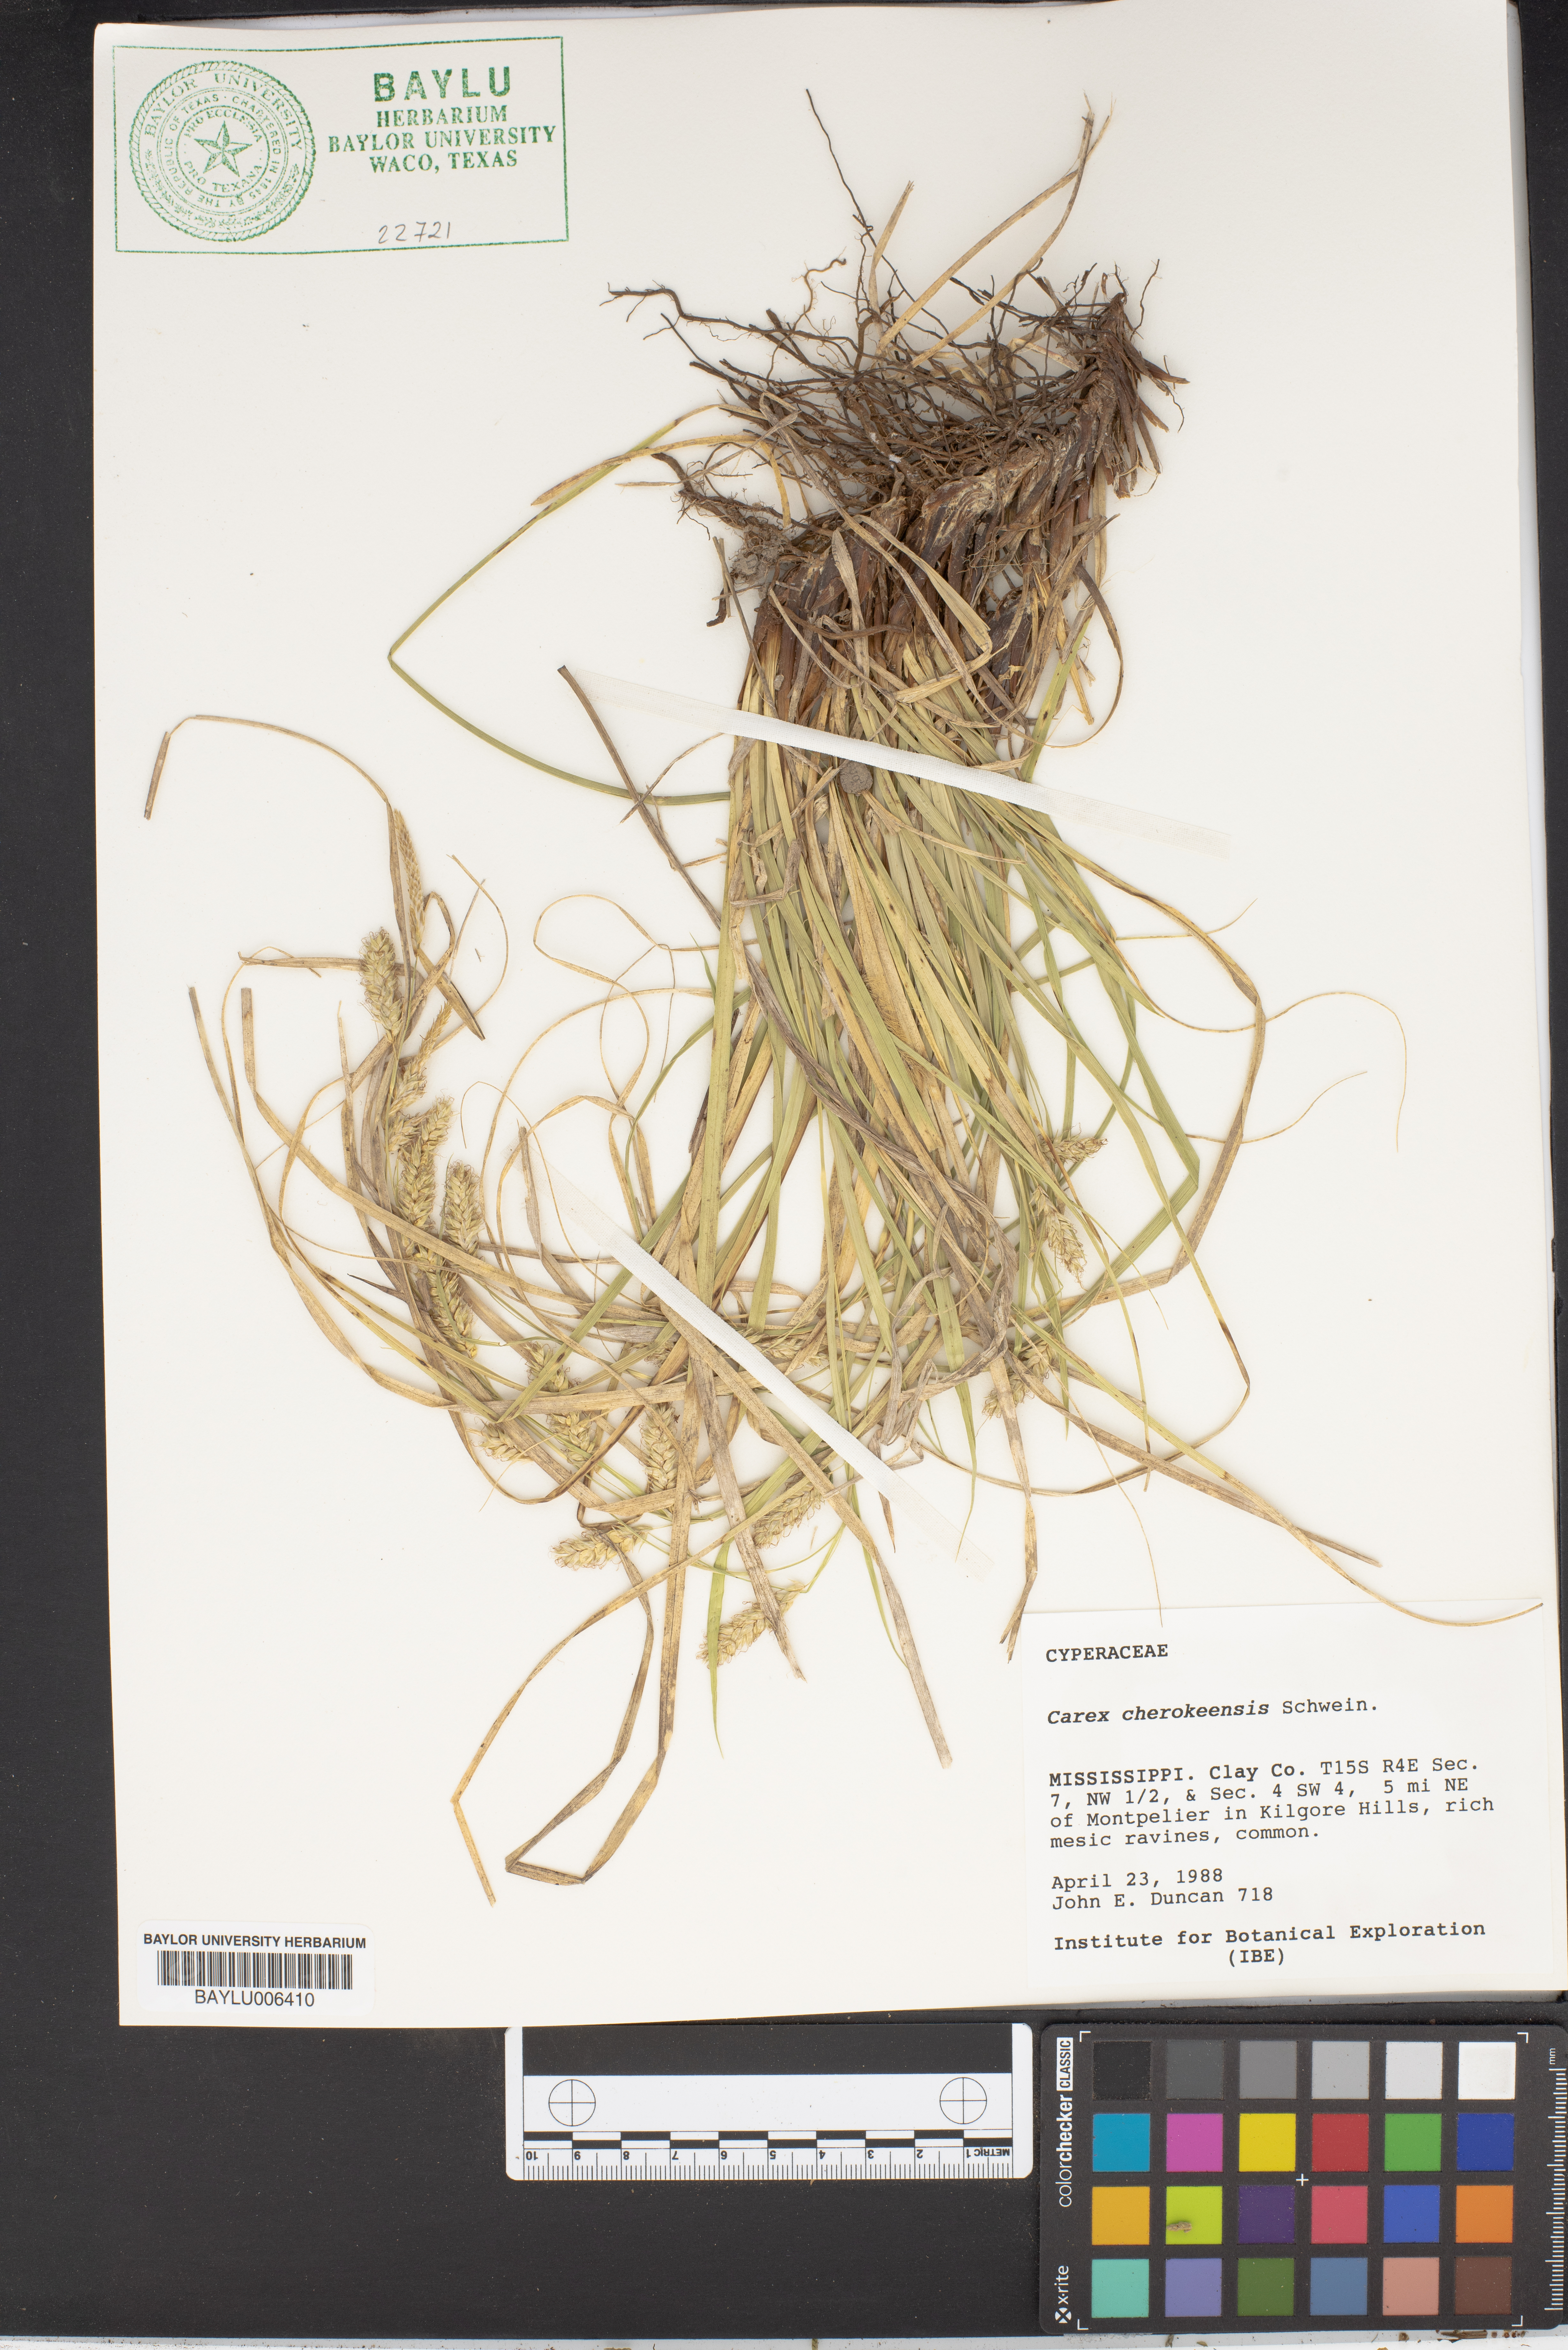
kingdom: Plantae
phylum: Tracheophyta
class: Liliopsida
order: Poales
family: Cyperaceae
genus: Carex
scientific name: Carex cherokeensis
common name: Cherokee sedge
